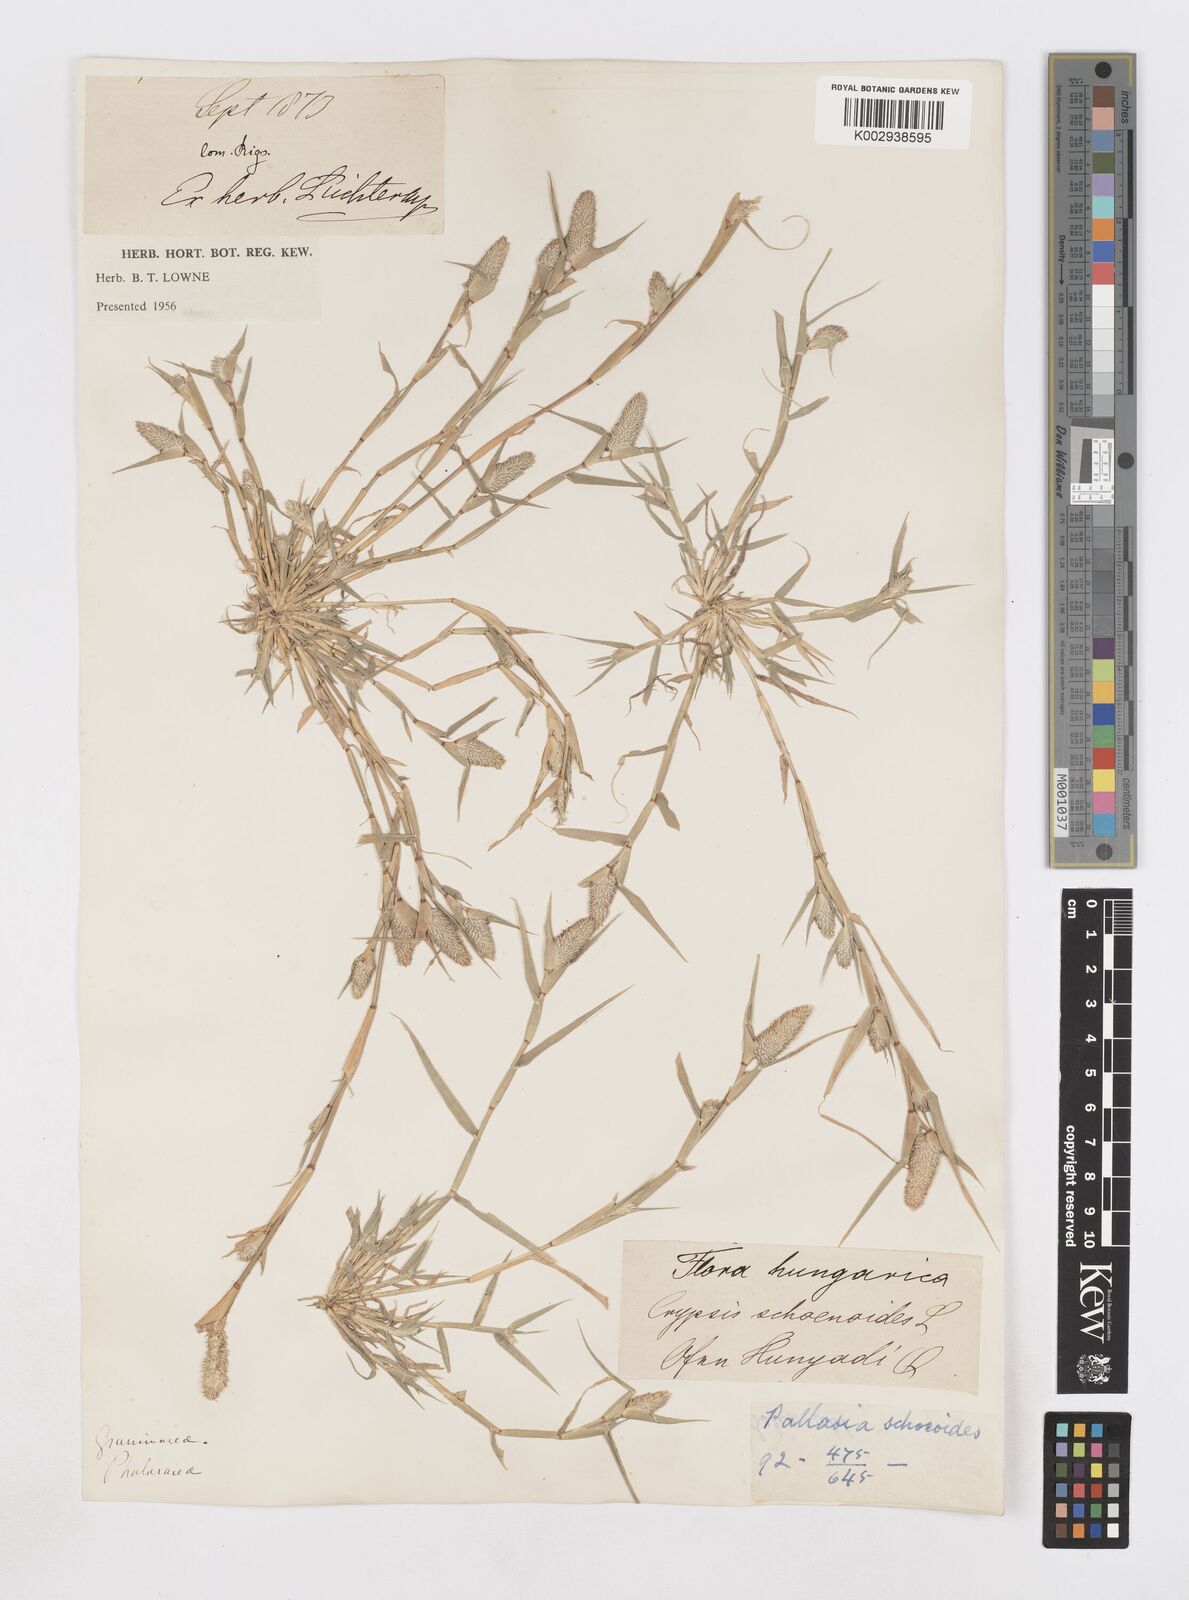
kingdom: Plantae
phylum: Tracheophyta
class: Liliopsida
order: Poales
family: Poaceae
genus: Sporobolus
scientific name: Sporobolus schoenoides
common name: Rush-like timothy
